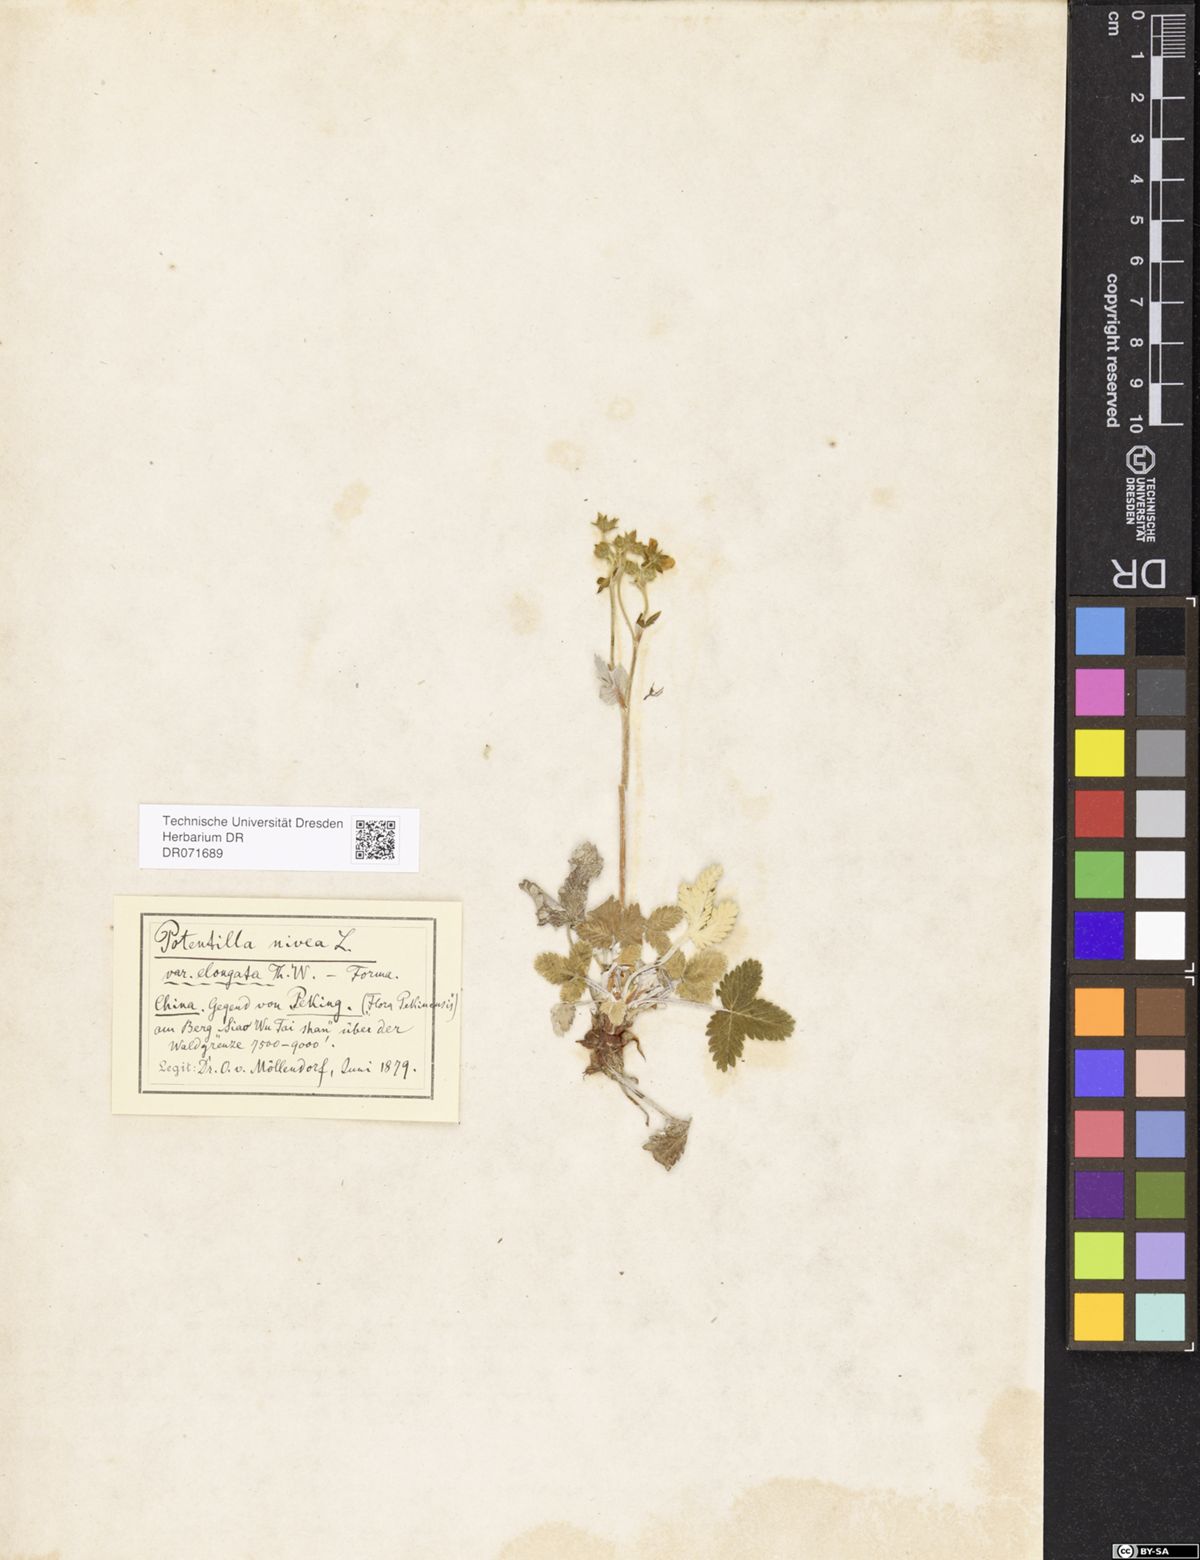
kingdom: Plantae
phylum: Tracheophyta
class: Magnoliopsida
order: Rosales
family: Rosaceae
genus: Potentilla
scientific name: Potentilla crebridens
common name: Congested cinquefoil
